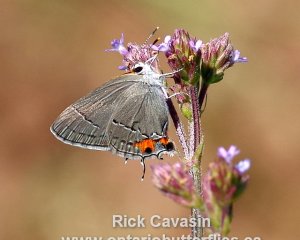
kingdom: Animalia
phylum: Arthropoda
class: Insecta
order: Lepidoptera
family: Lycaenidae
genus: Strymon
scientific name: Strymon melinus
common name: Gray Hairstreak
